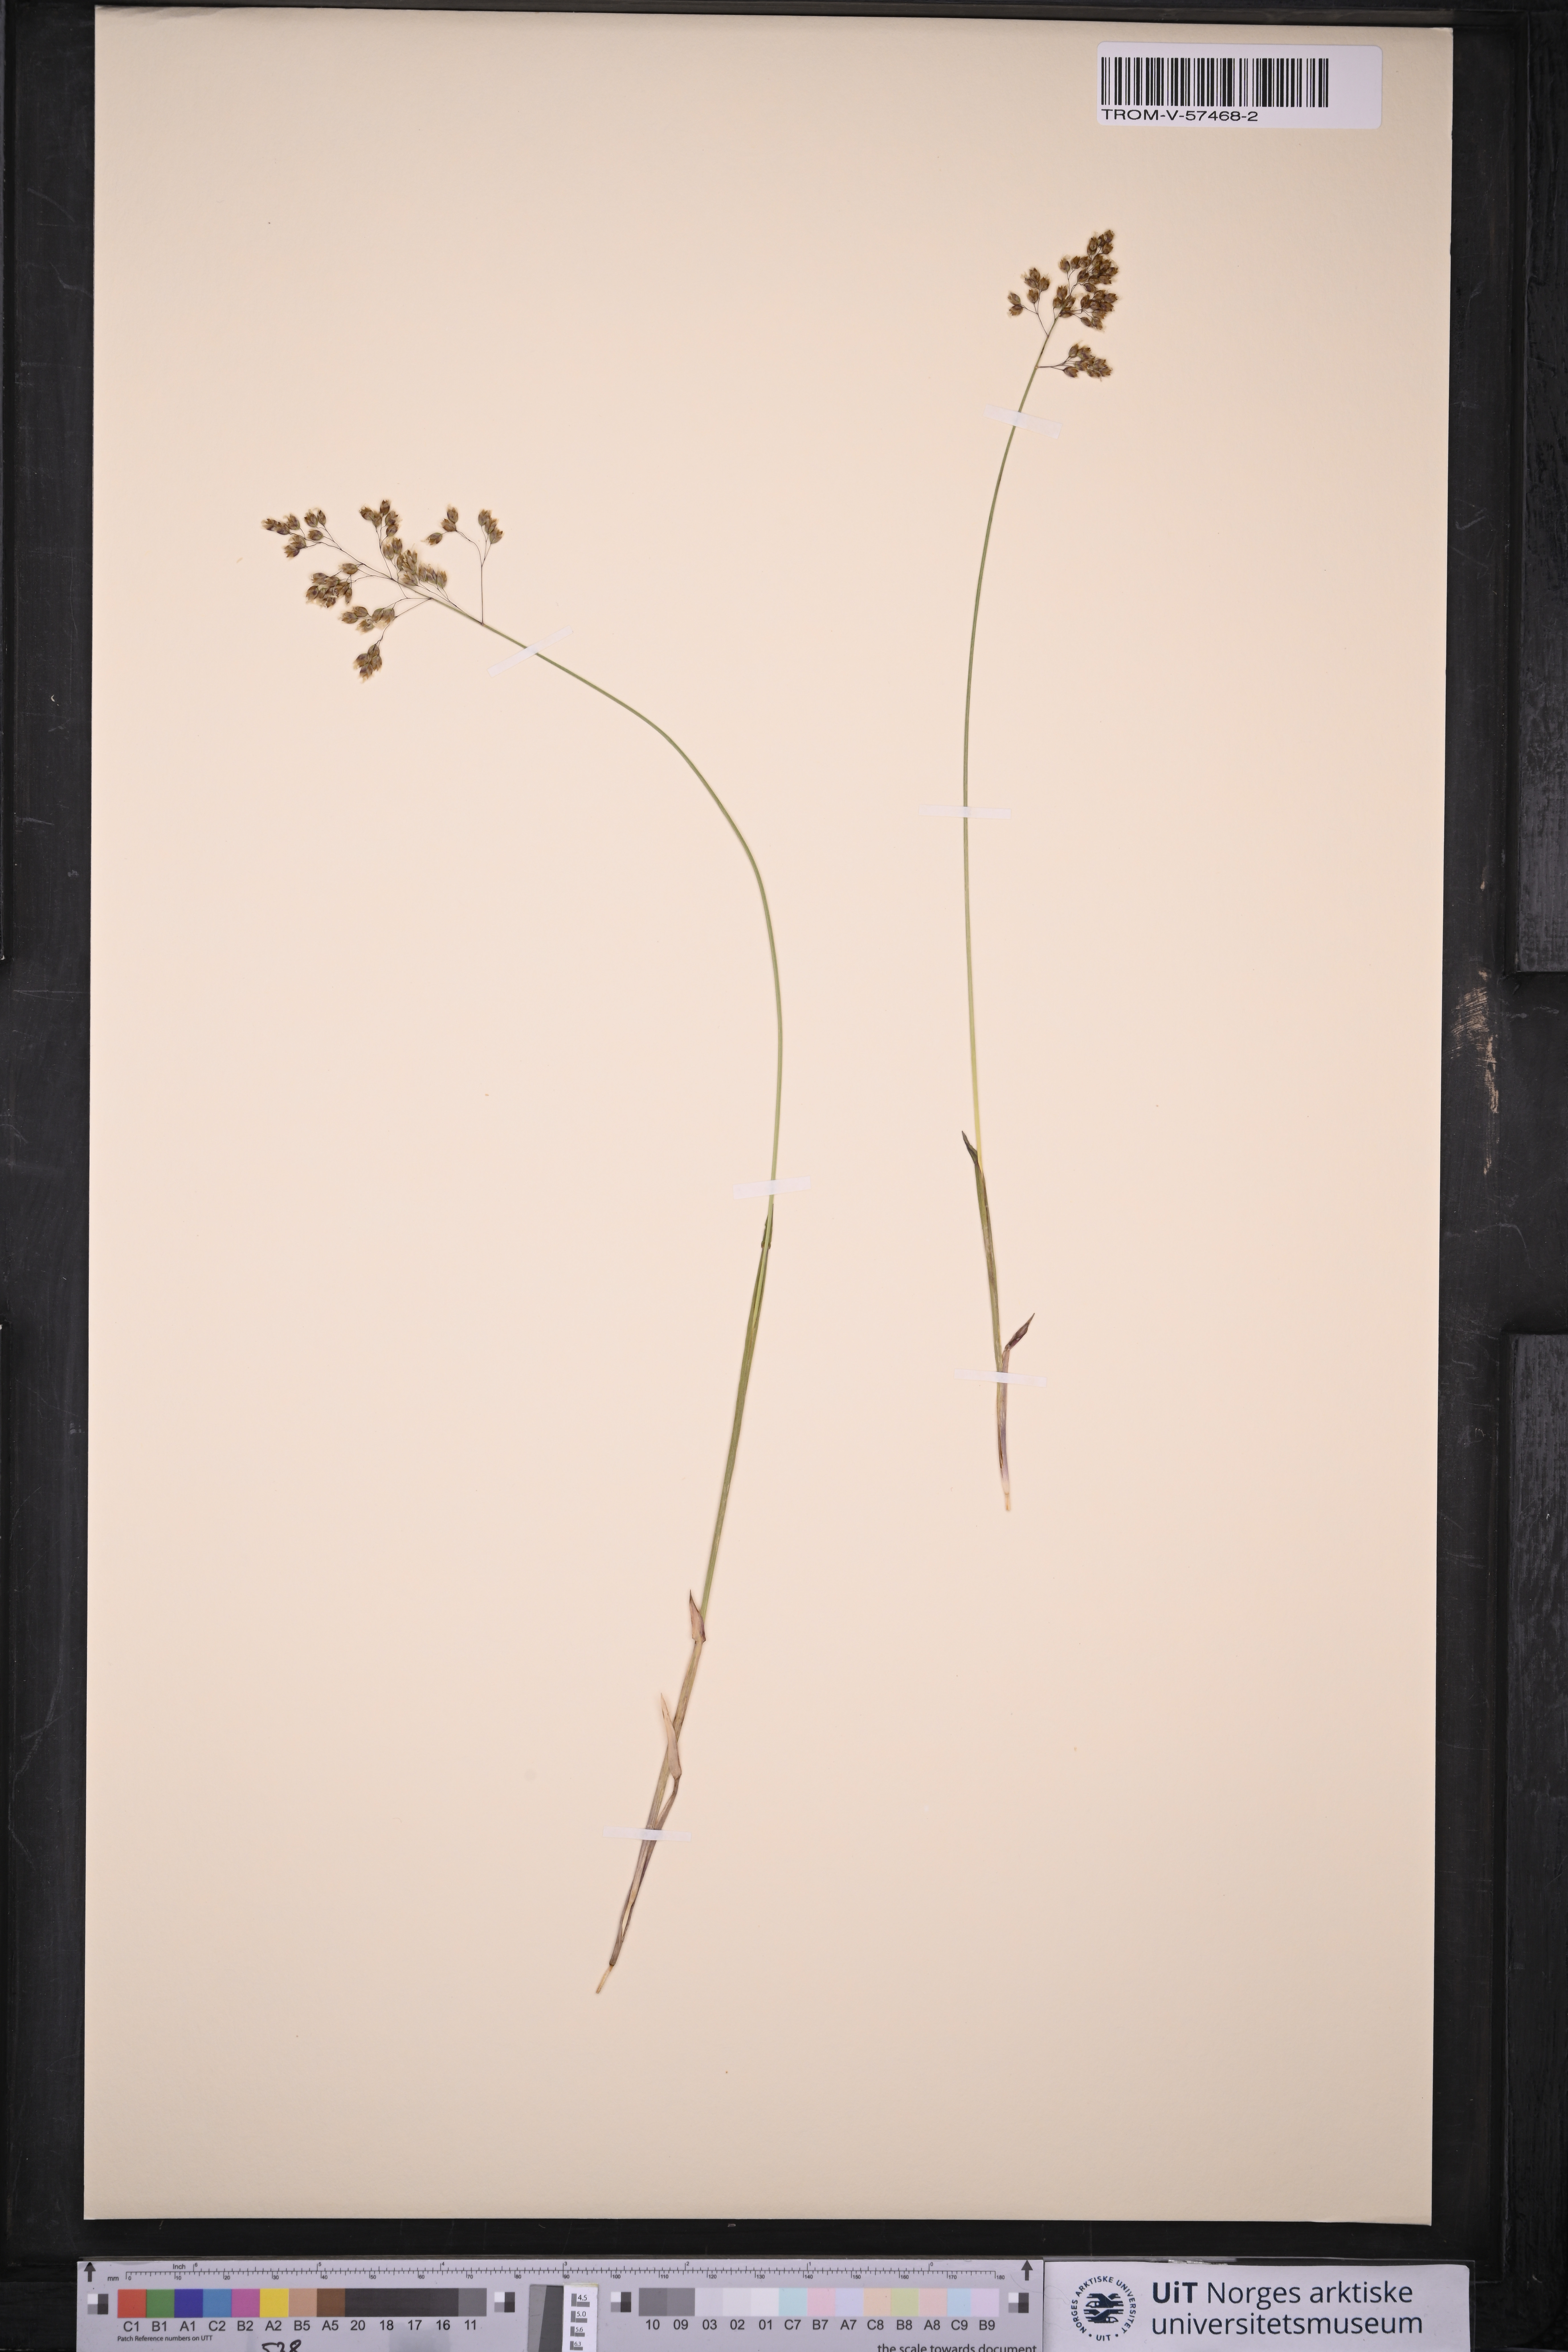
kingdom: Plantae
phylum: Tracheophyta
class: Liliopsida
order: Poales
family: Poaceae
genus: Anthoxanthum
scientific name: Anthoxanthum nitens
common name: Holy grass
